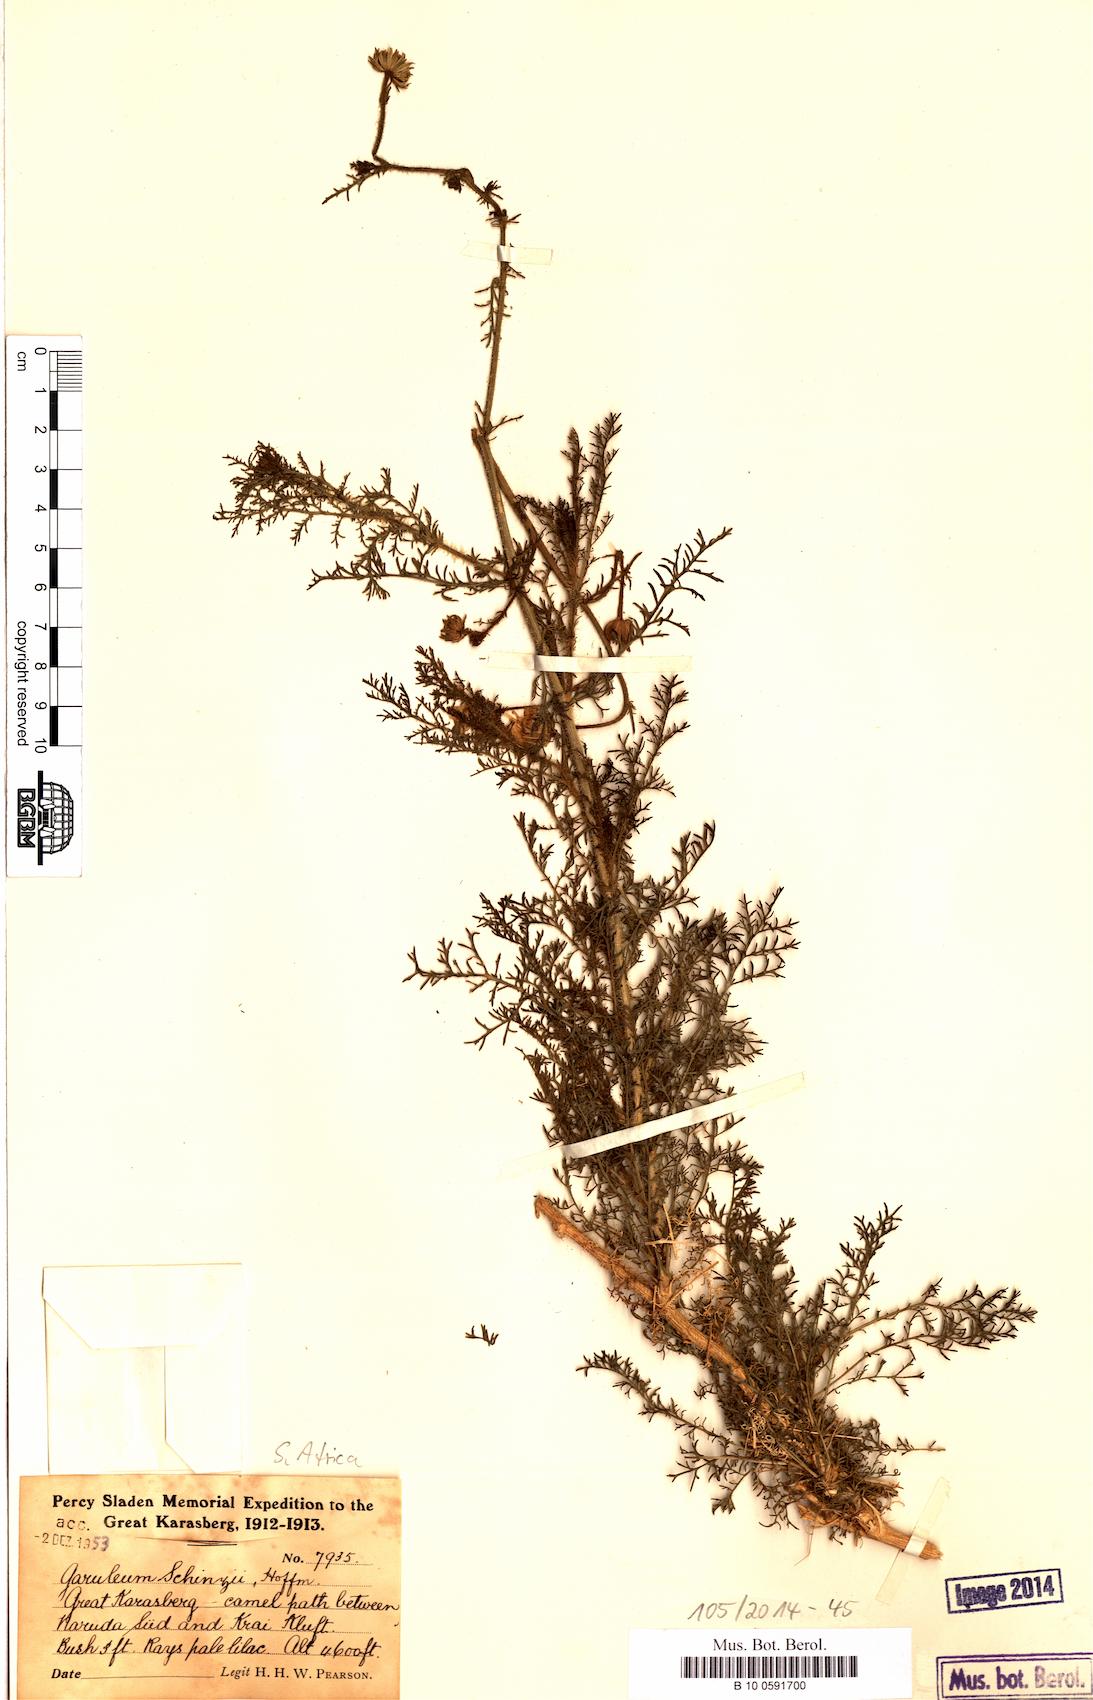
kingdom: Plantae
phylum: Tracheophyta
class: Magnoliopsida
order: Asterales
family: Asteraceae
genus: Garuleum
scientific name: Garuleum schinzii
